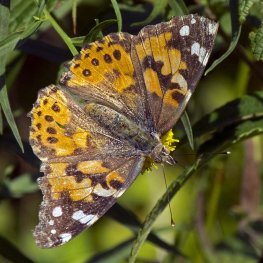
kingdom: Animalia
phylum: Arthropoda
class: Insecta
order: Lepidoptera
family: Nymphalidae
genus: Vanessa
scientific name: Vanessa cardui
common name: Painted Lady
